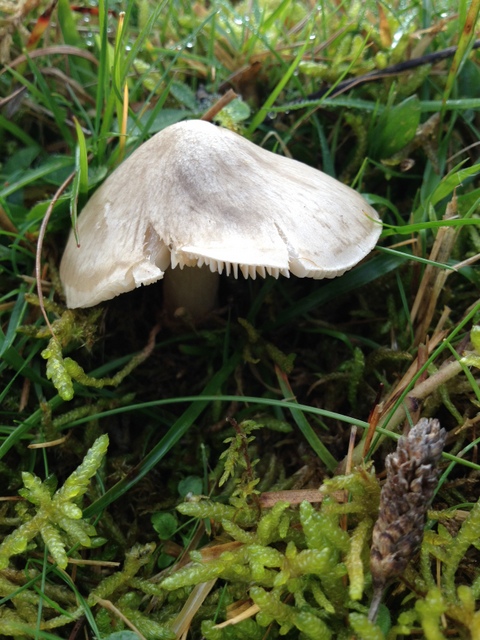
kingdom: Fungi
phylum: Basidiomycota
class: Agaricomycetes
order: Agaricales
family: Entolomataceae
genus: Entoloma
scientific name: Entoloma prunuloides
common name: mel-rødblad
